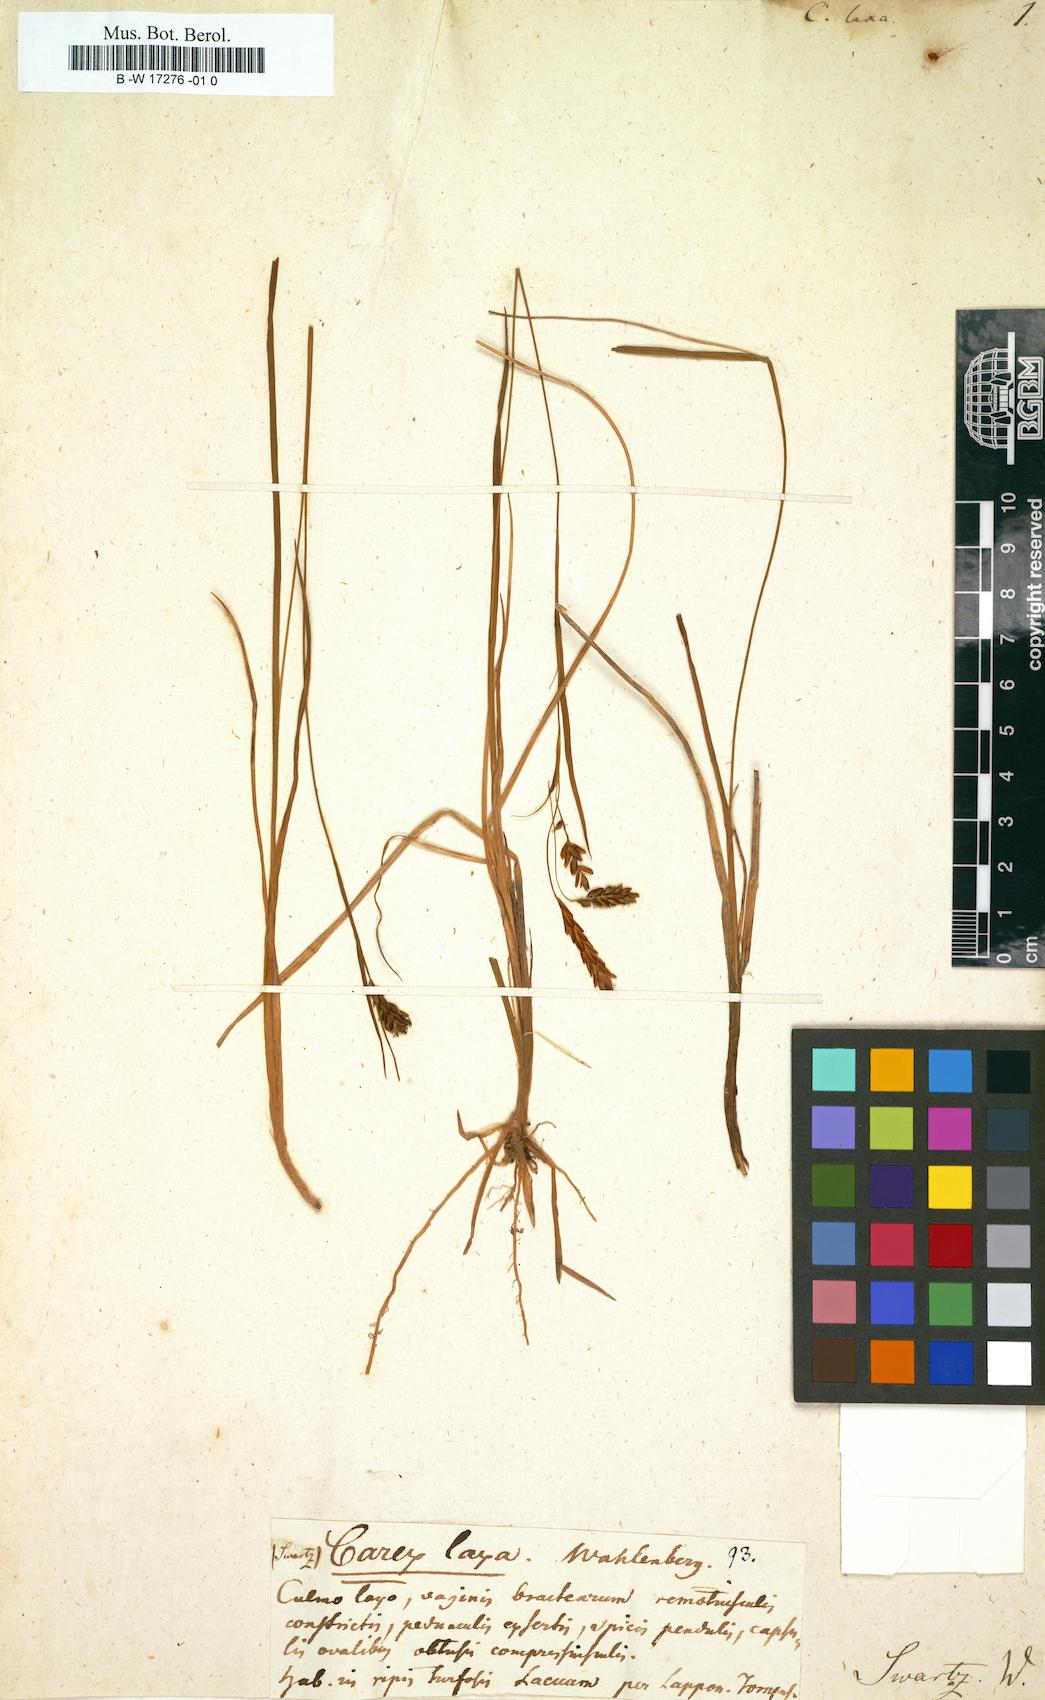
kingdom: Plantae
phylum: Tracheophyta
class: Liliopsida
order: Poales
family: Cyperaceae
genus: Carex
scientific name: Carex laxa
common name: Weak sedge
